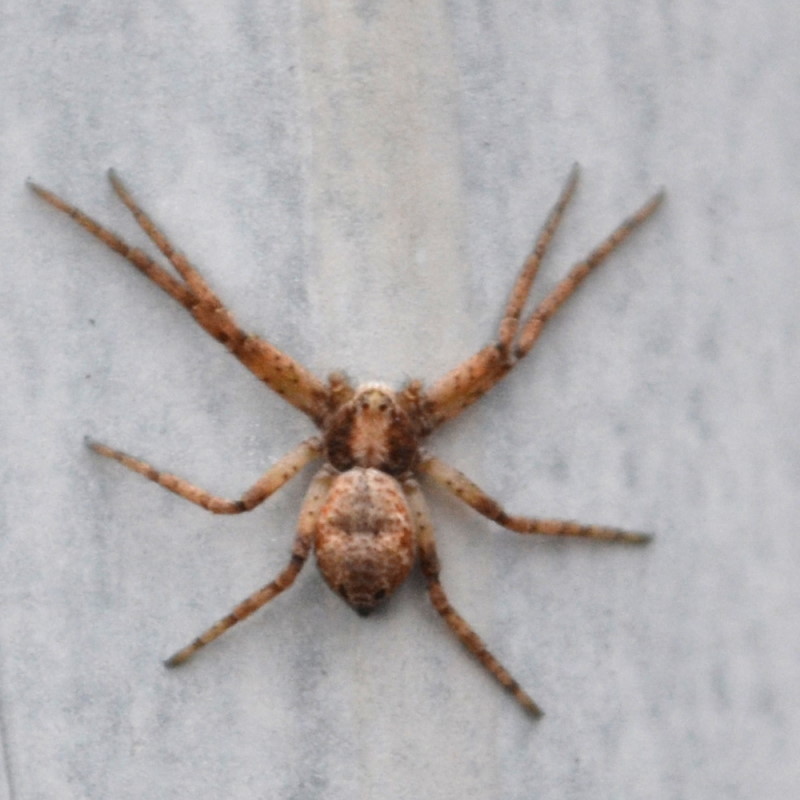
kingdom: Animalia
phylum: Arthropoda
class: Arachnida
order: Araneae
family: Philodromidae
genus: Philodromus
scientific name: Philodromus
